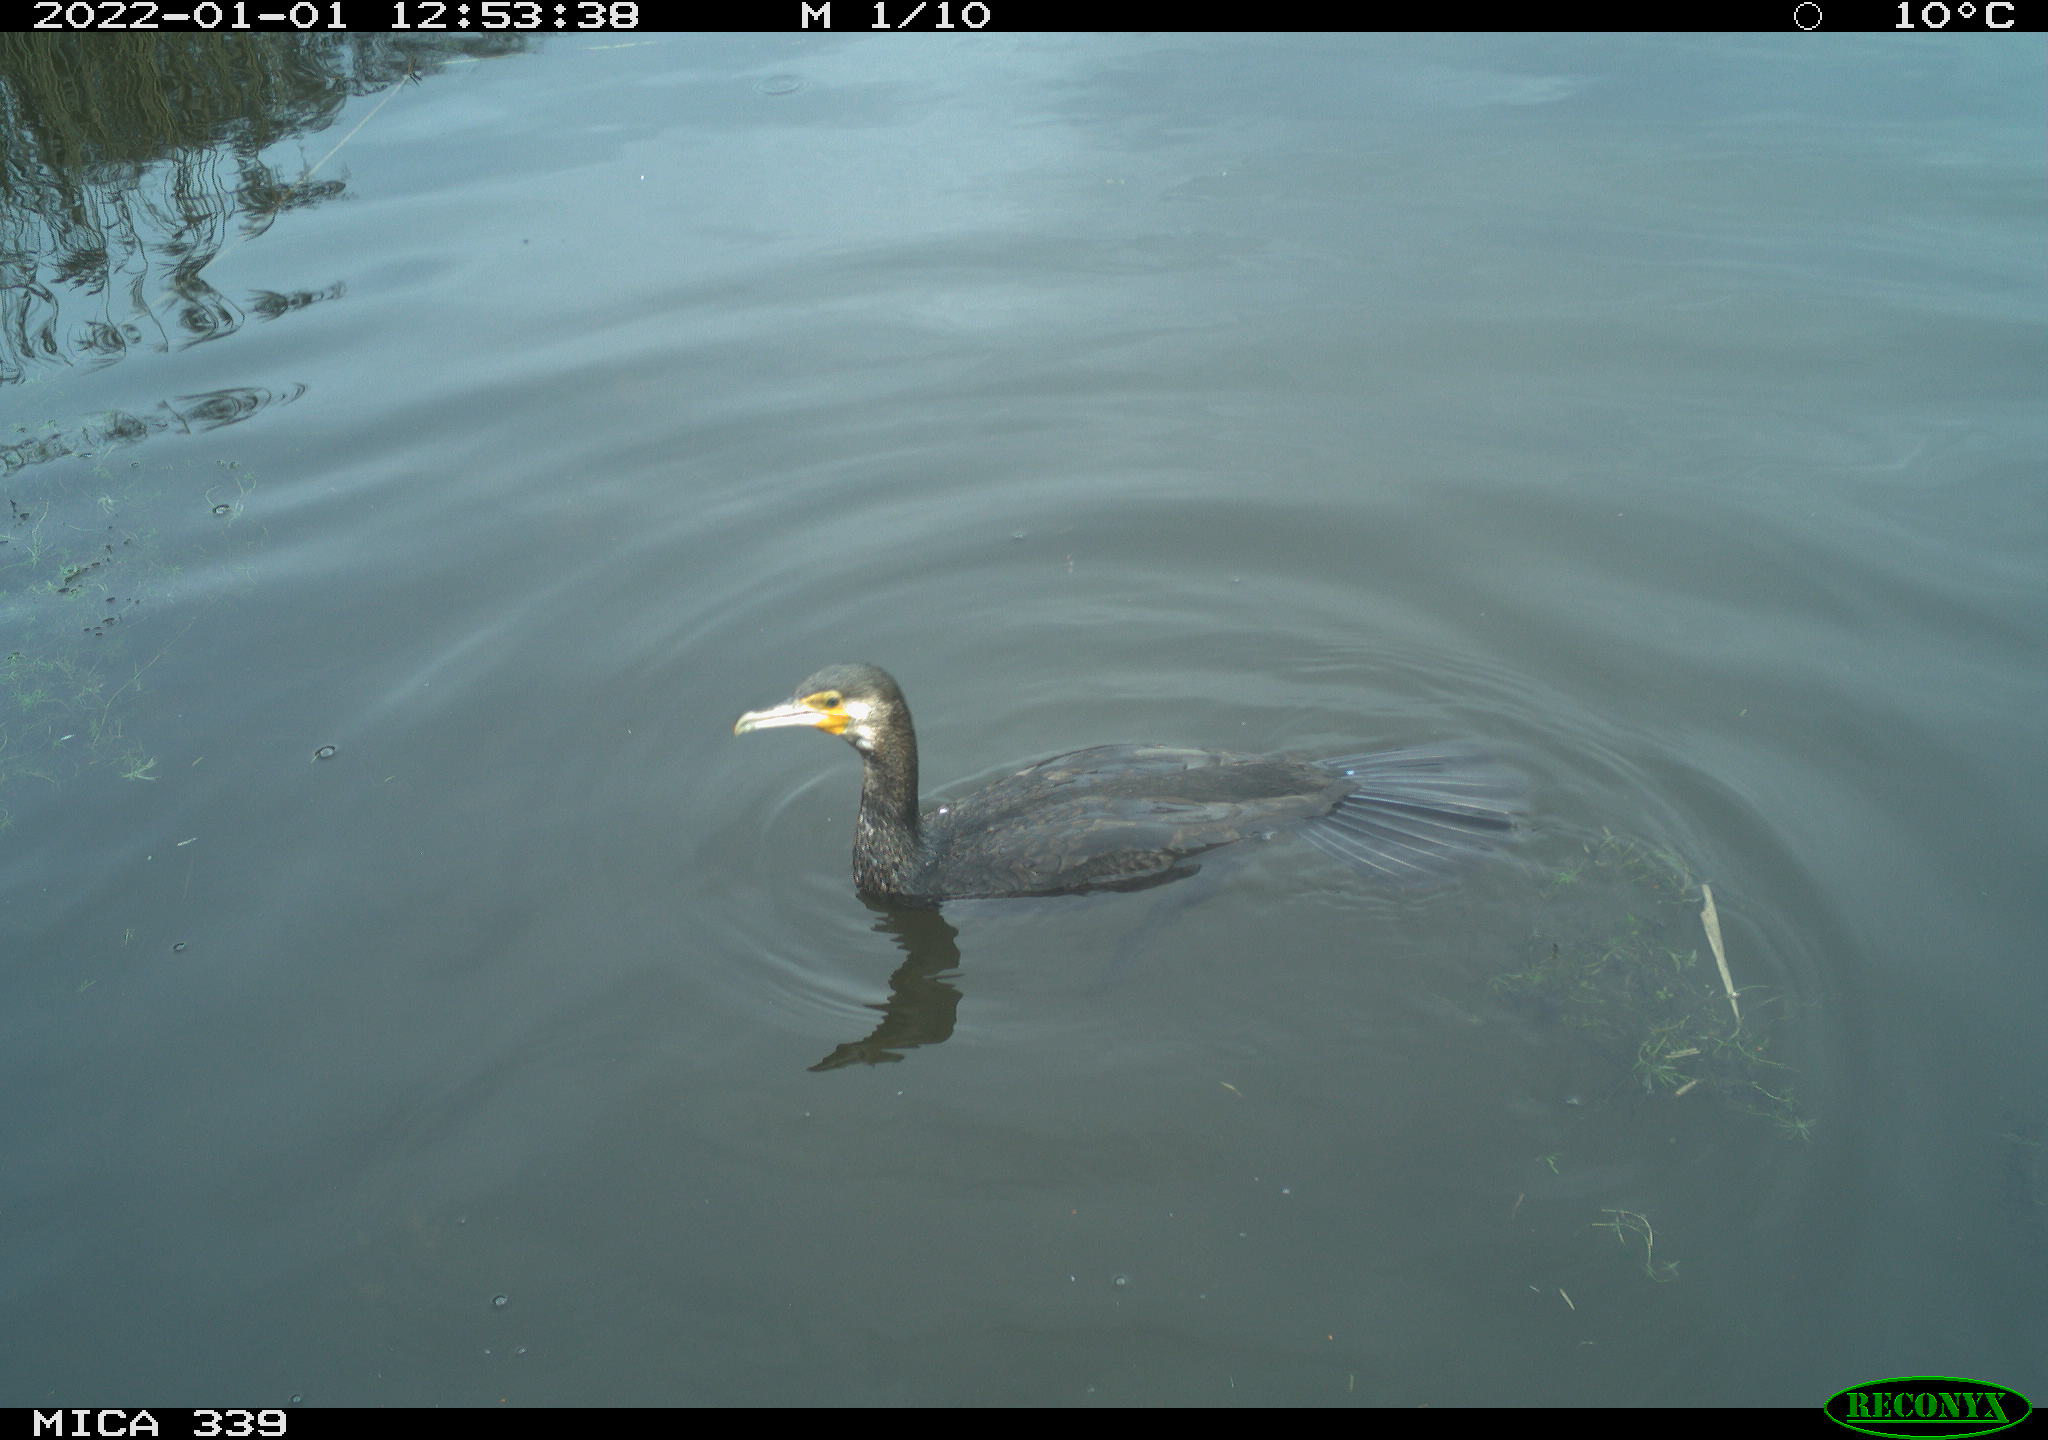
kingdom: Animalia
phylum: Chordata
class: Aves
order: Suliformes
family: Phalacrocoracidae
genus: Phalacrocorax
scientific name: Phalacrocorax carbo
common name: Great cormorant
